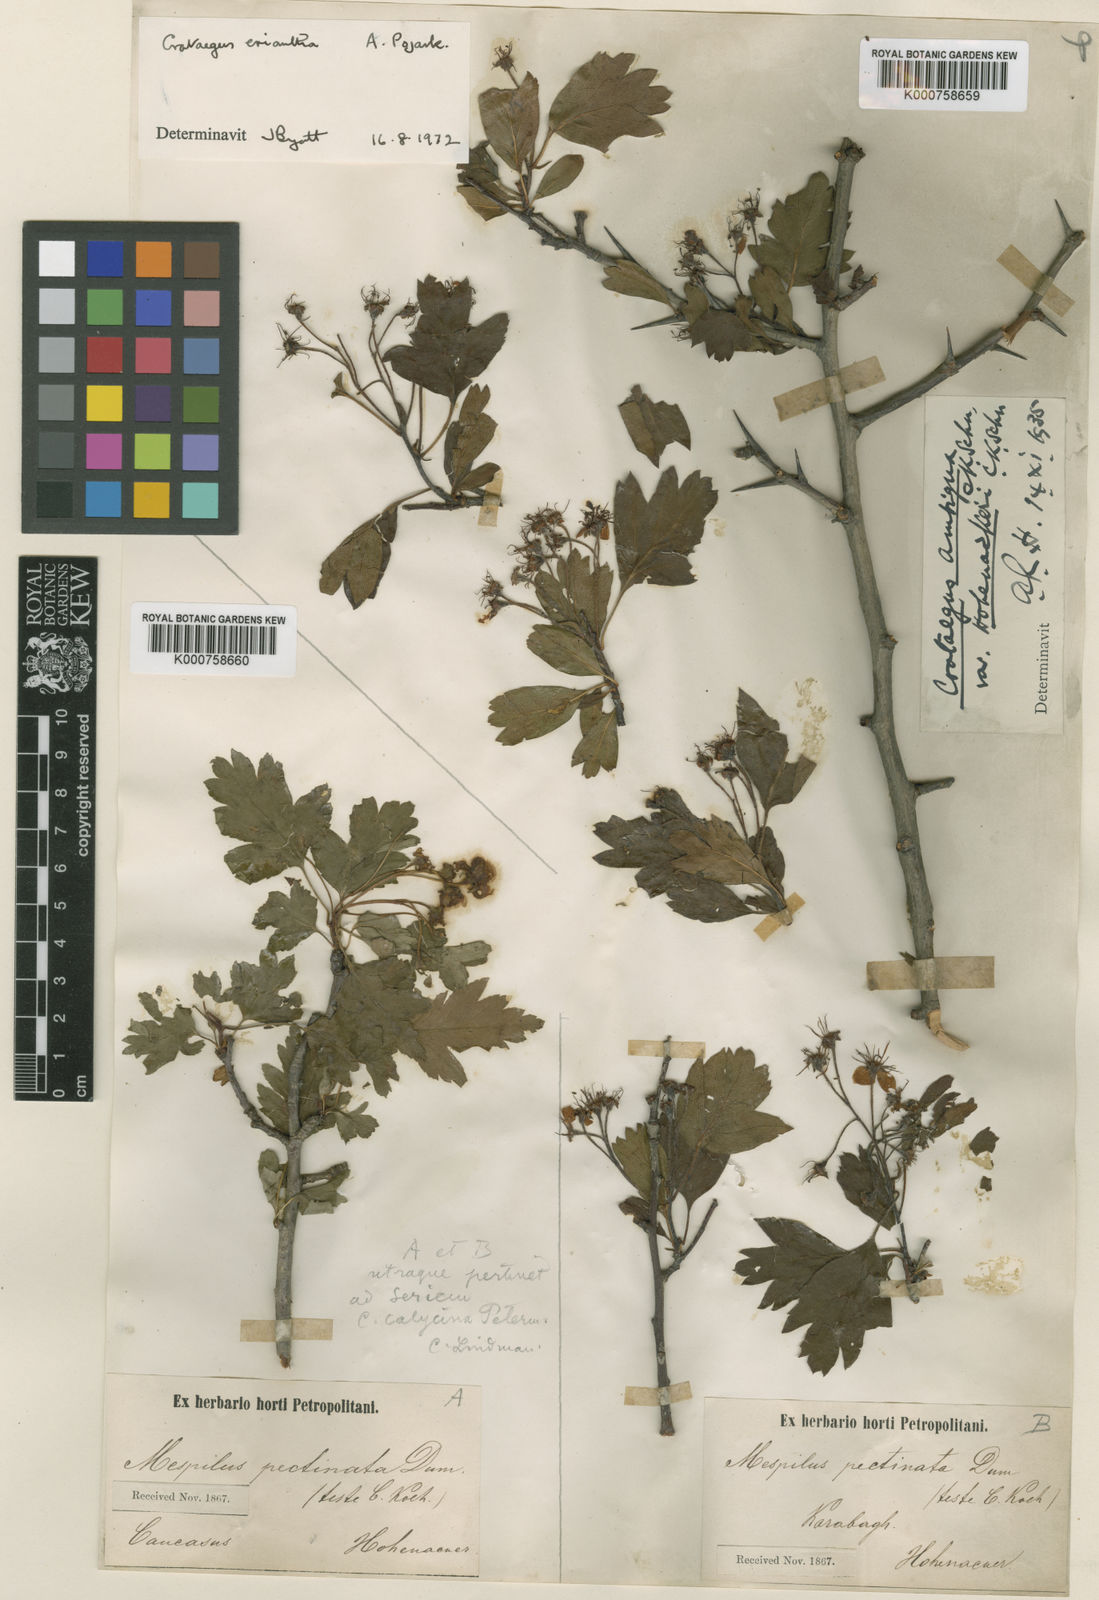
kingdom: Plantae
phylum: Tracheophyta
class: Magnoliopsida
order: Rosales
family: Rosaceae
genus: Crataegus
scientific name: Crataegus meyeri
